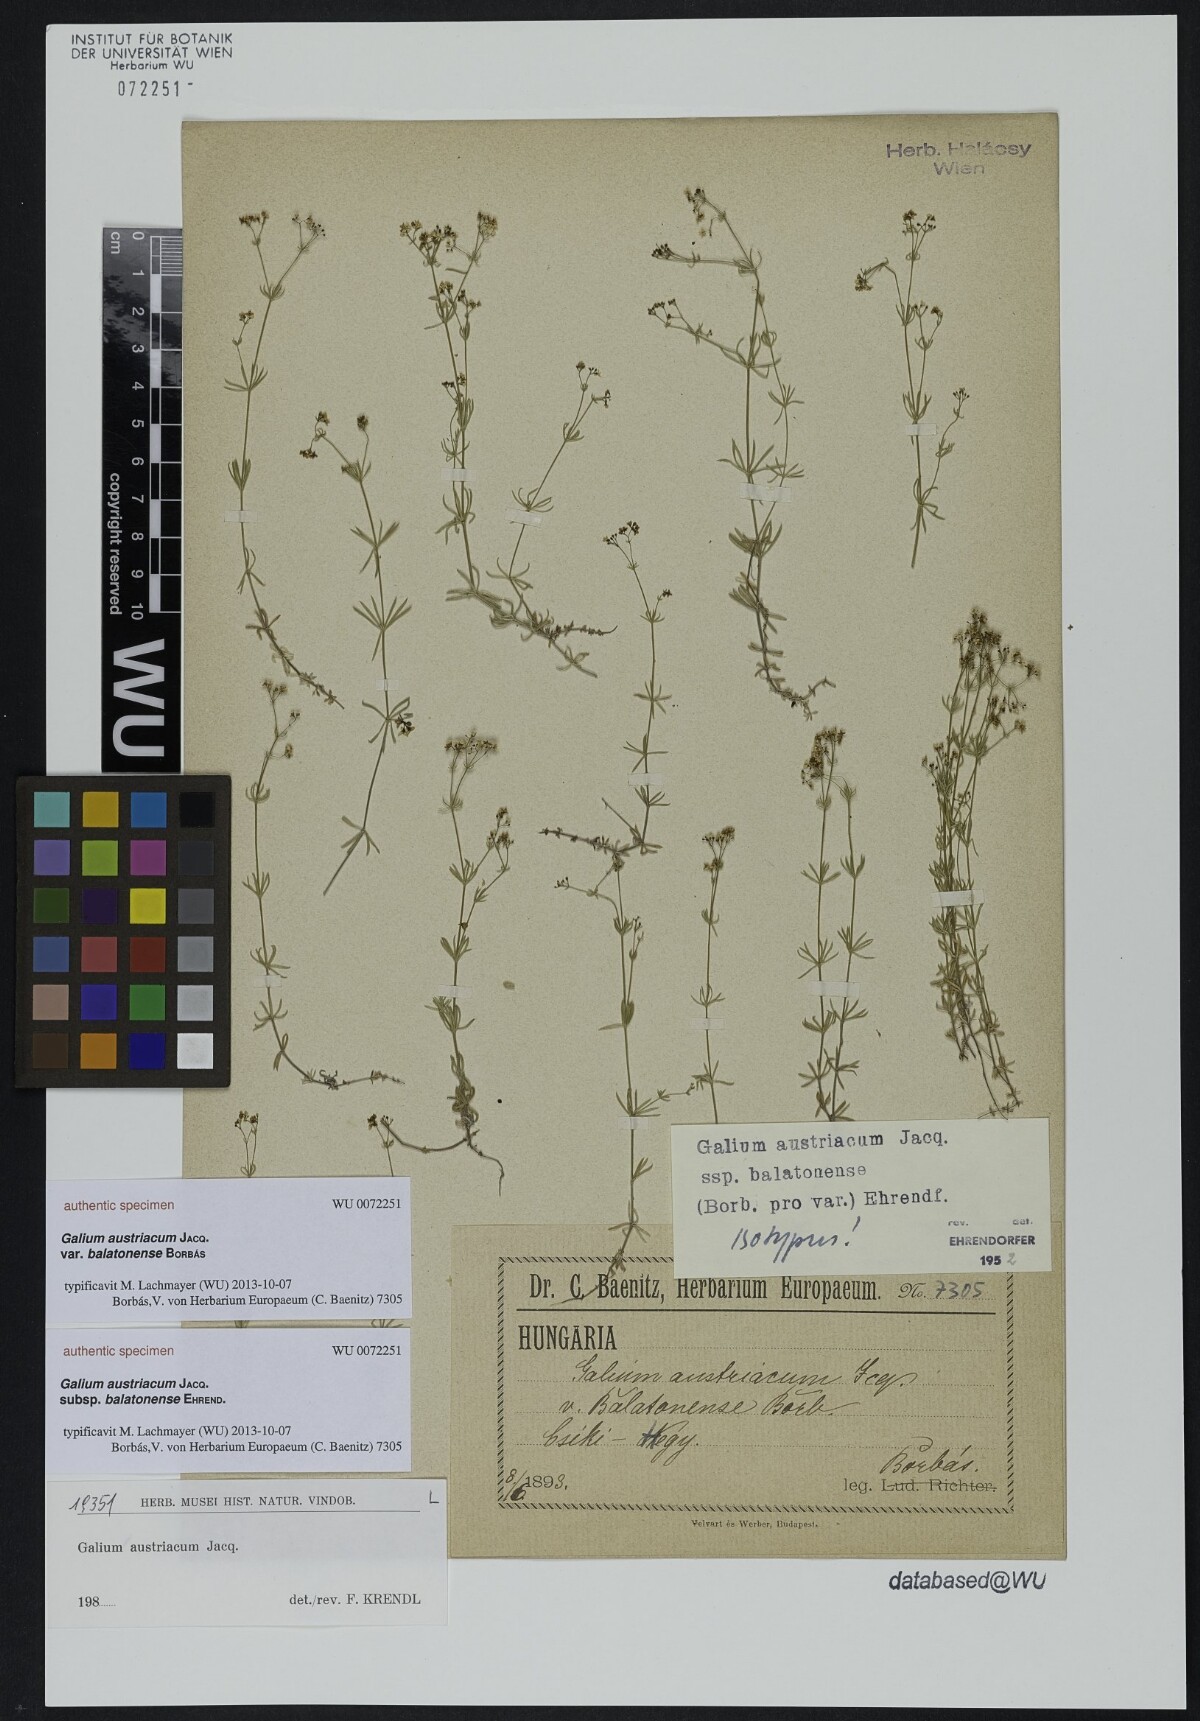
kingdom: Plantae
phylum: Tracheophyta
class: Magnoliopsida
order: Gentianales
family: Rubiaceae
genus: Galium
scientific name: Galium austriacum
